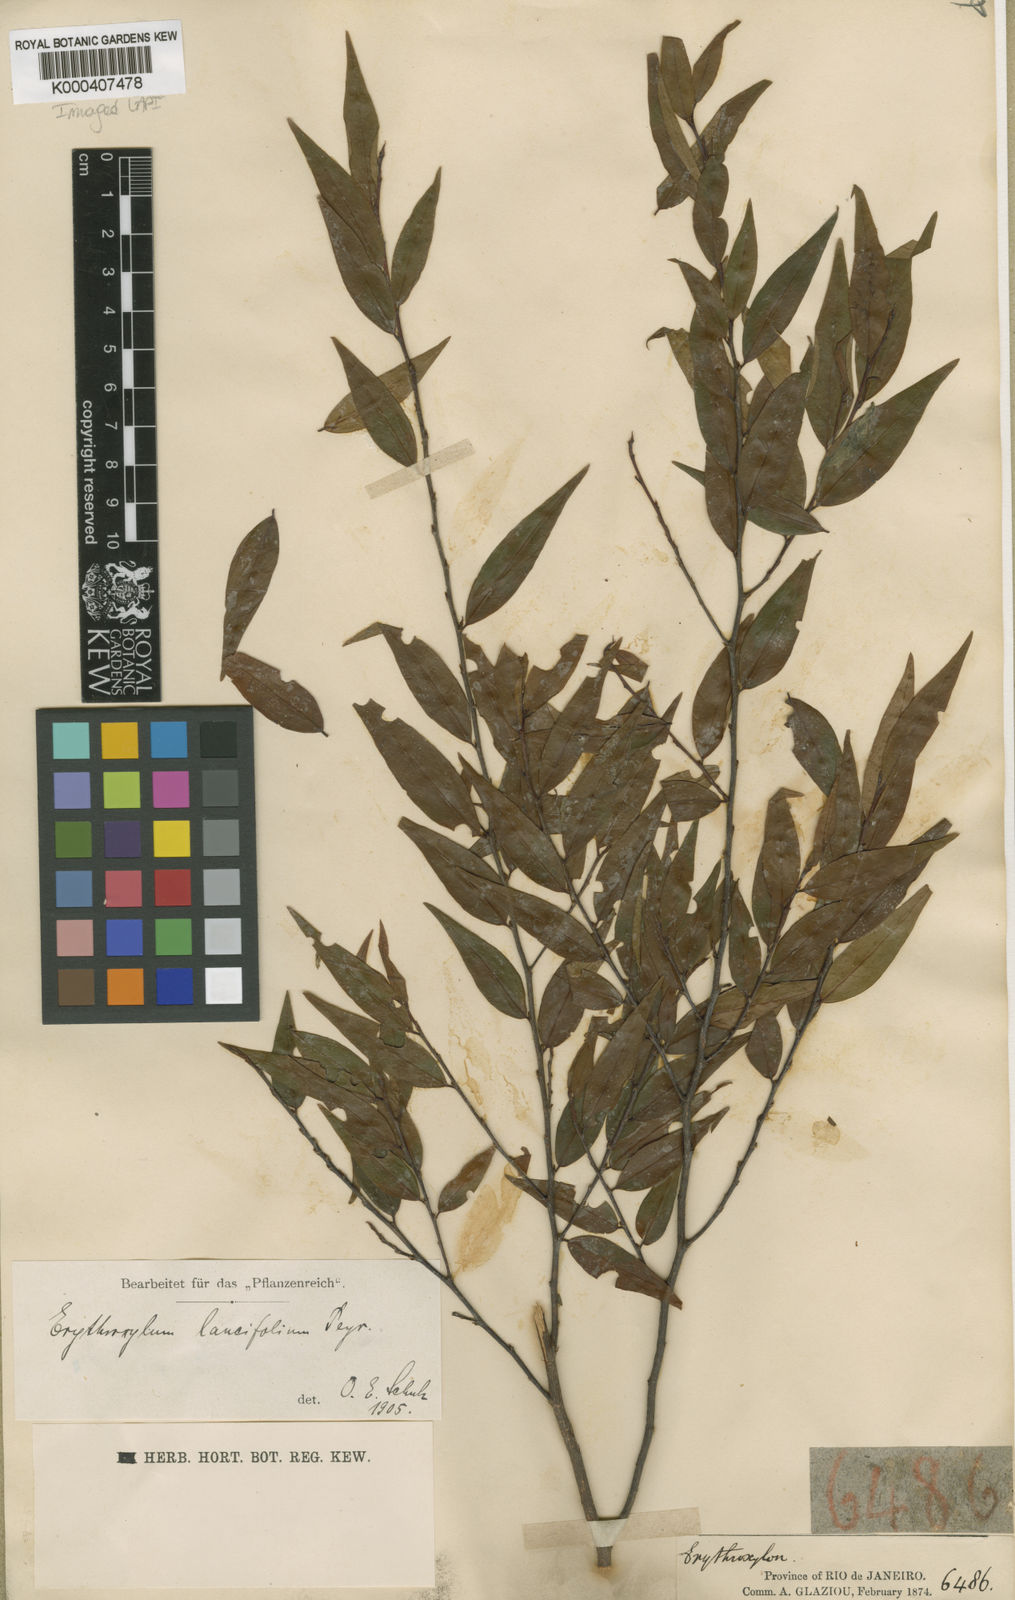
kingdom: Plantae
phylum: Tracheophyta
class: Magnoliopsida
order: Malpighiales
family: Erythroxylaceae
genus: Erythroxylum
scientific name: Erythroxylum lancifolium
